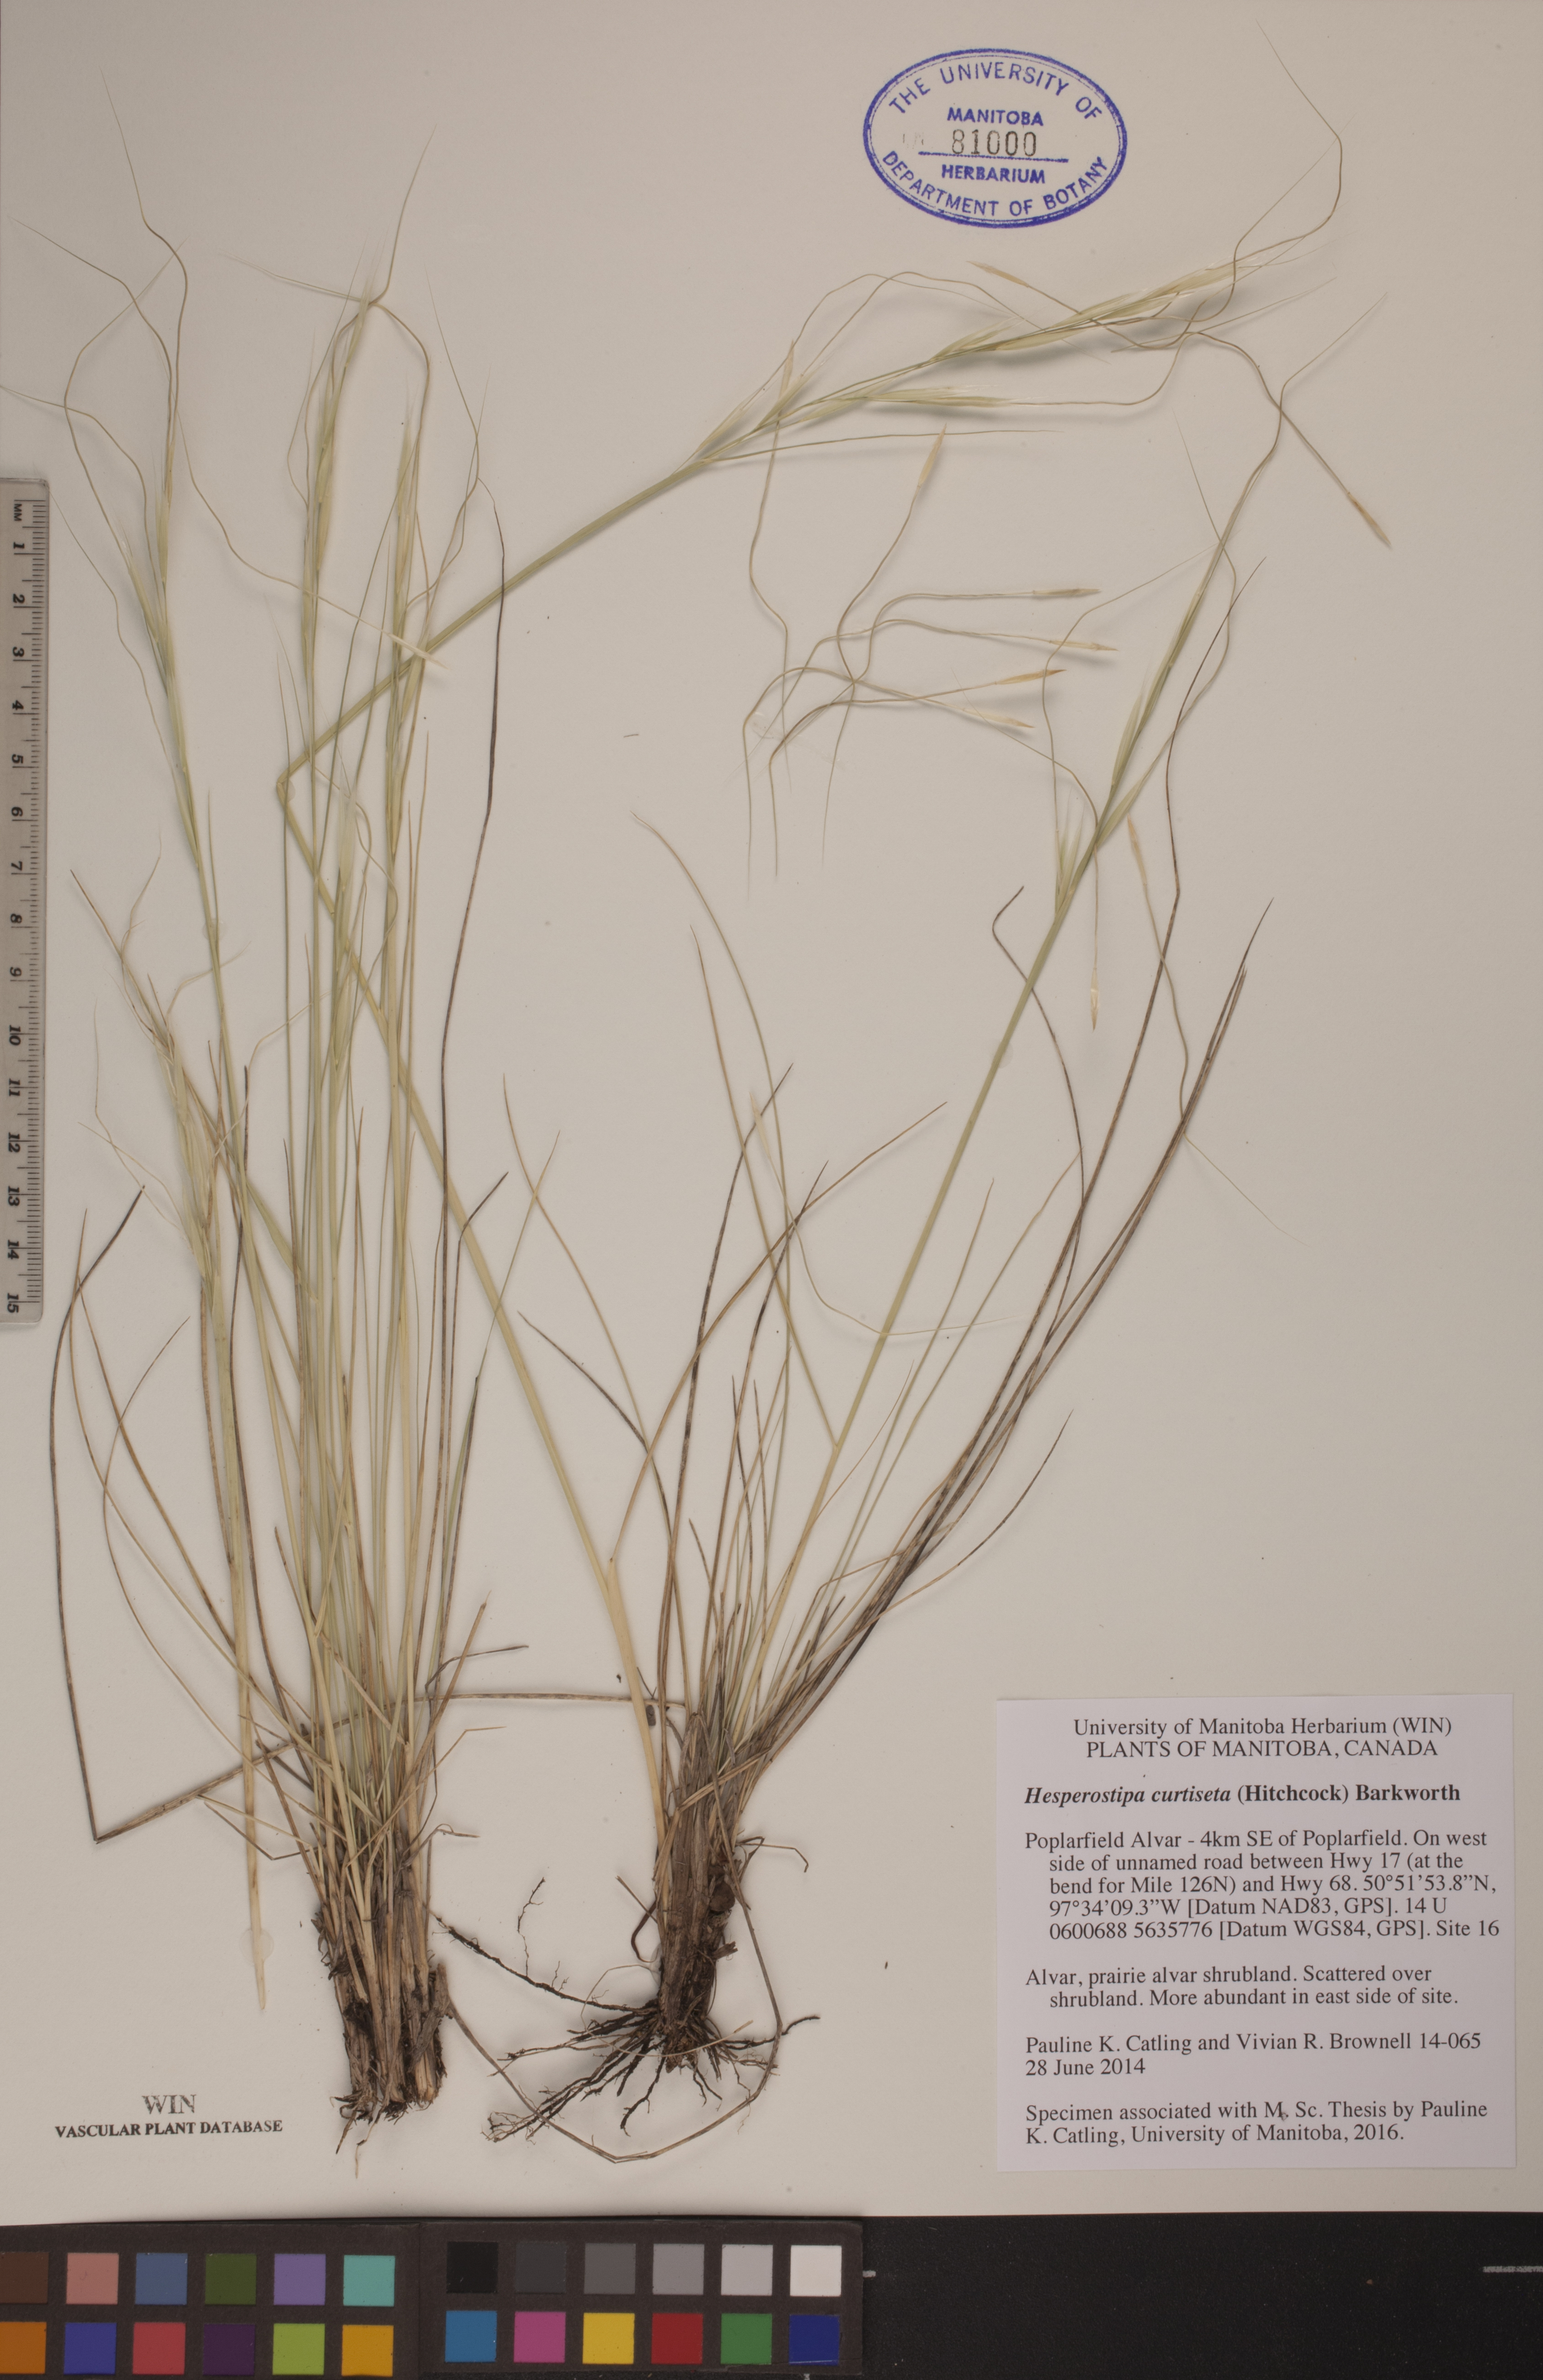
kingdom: Plantae
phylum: Tracheophyta
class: Liliopsida
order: Poales
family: Poaceae
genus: Hesperostipa
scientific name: Hesperostipa curtiseta
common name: Canada needle-and-thread grass
